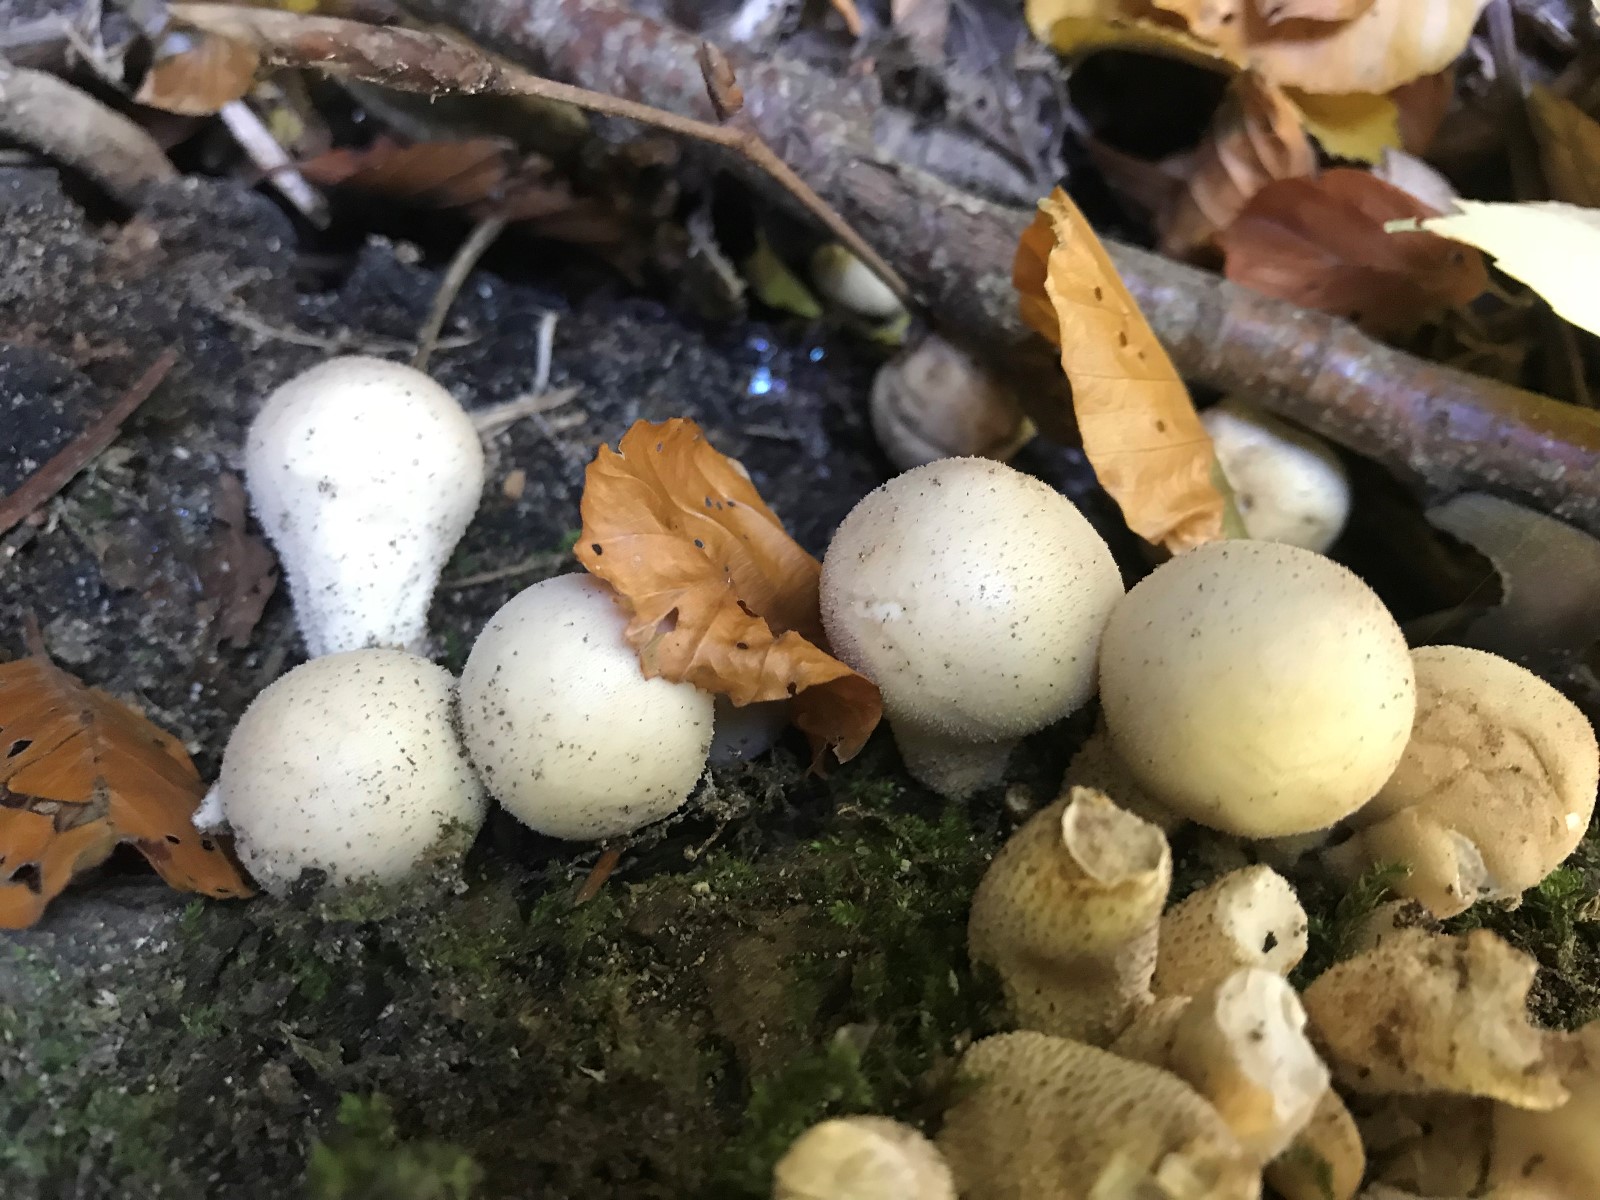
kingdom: Fungi
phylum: Basidiomycota
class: Agaricomycetes
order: Agaricales
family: Lycoperdaceae
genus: Apioperdon
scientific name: Apioperdon pyriforme
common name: pære-støvbold
